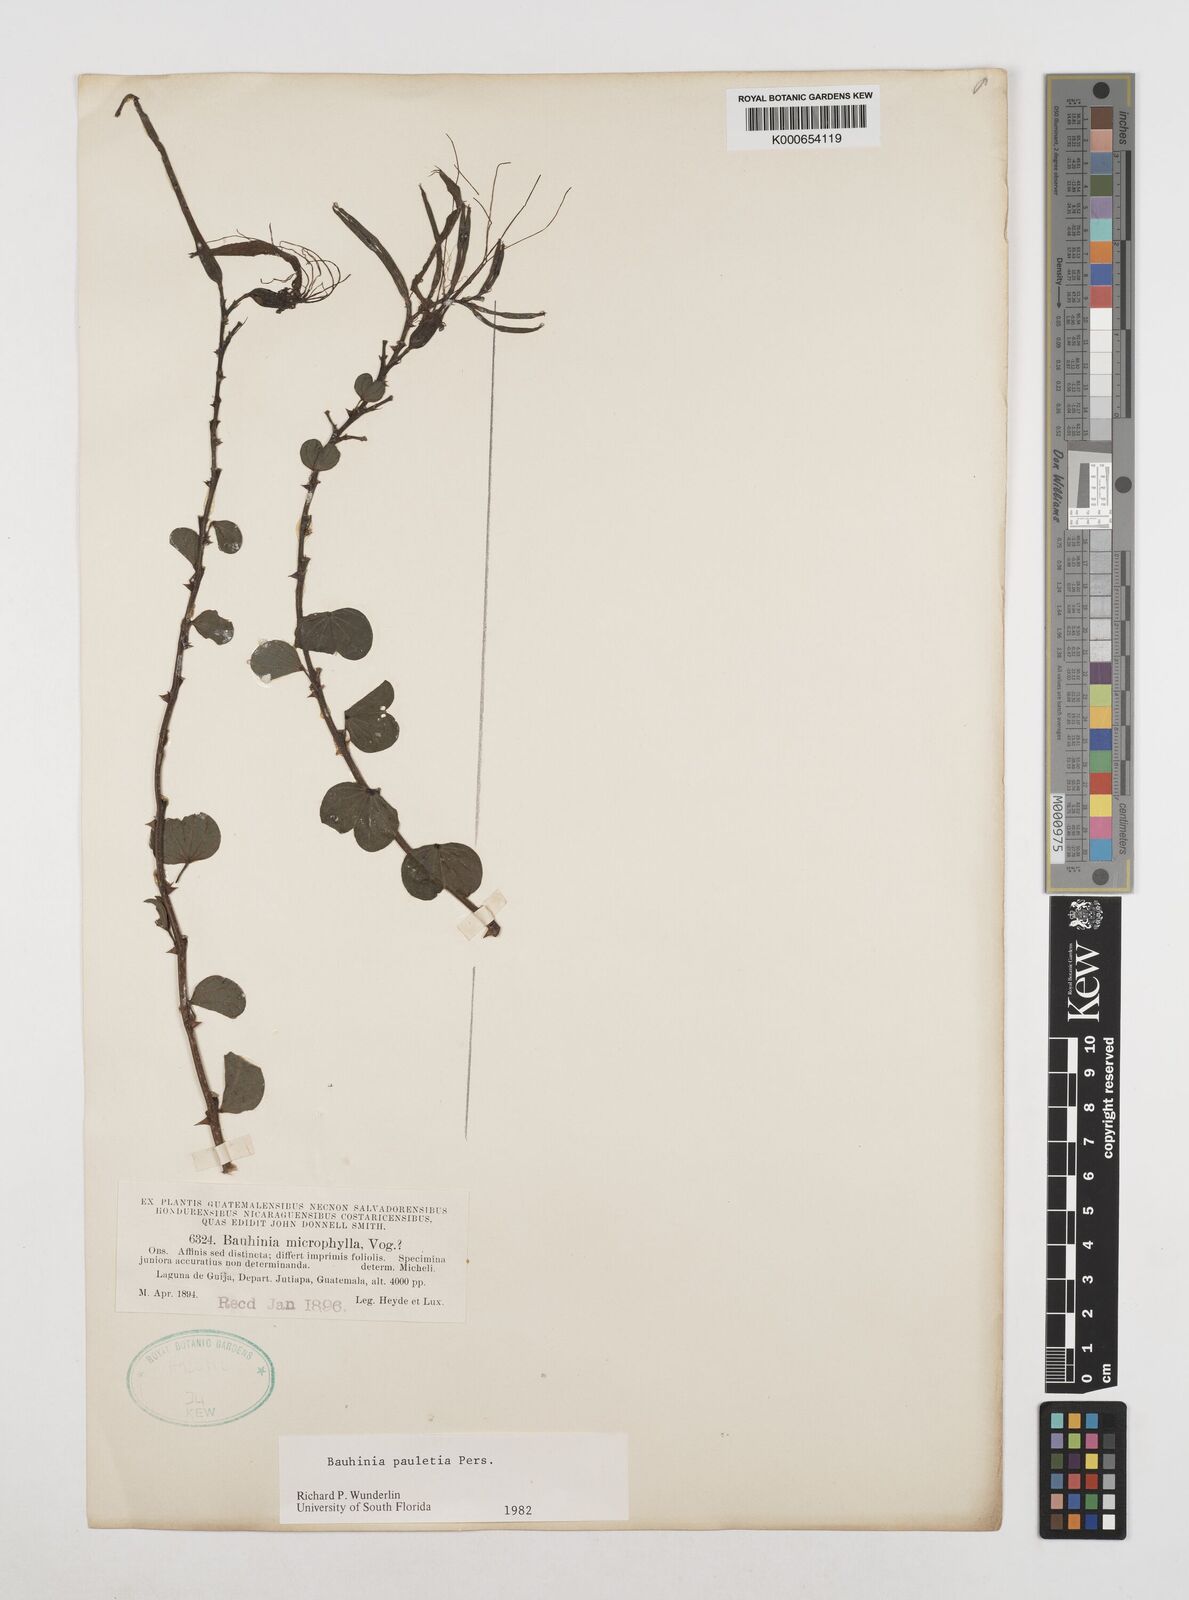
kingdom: Plantae
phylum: Tracheophyta
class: Magnoliopsida
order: Fabales
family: Fabaceae
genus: Bauhinia
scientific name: Bauhinia pauletia
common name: Railway-fence bauhinia
